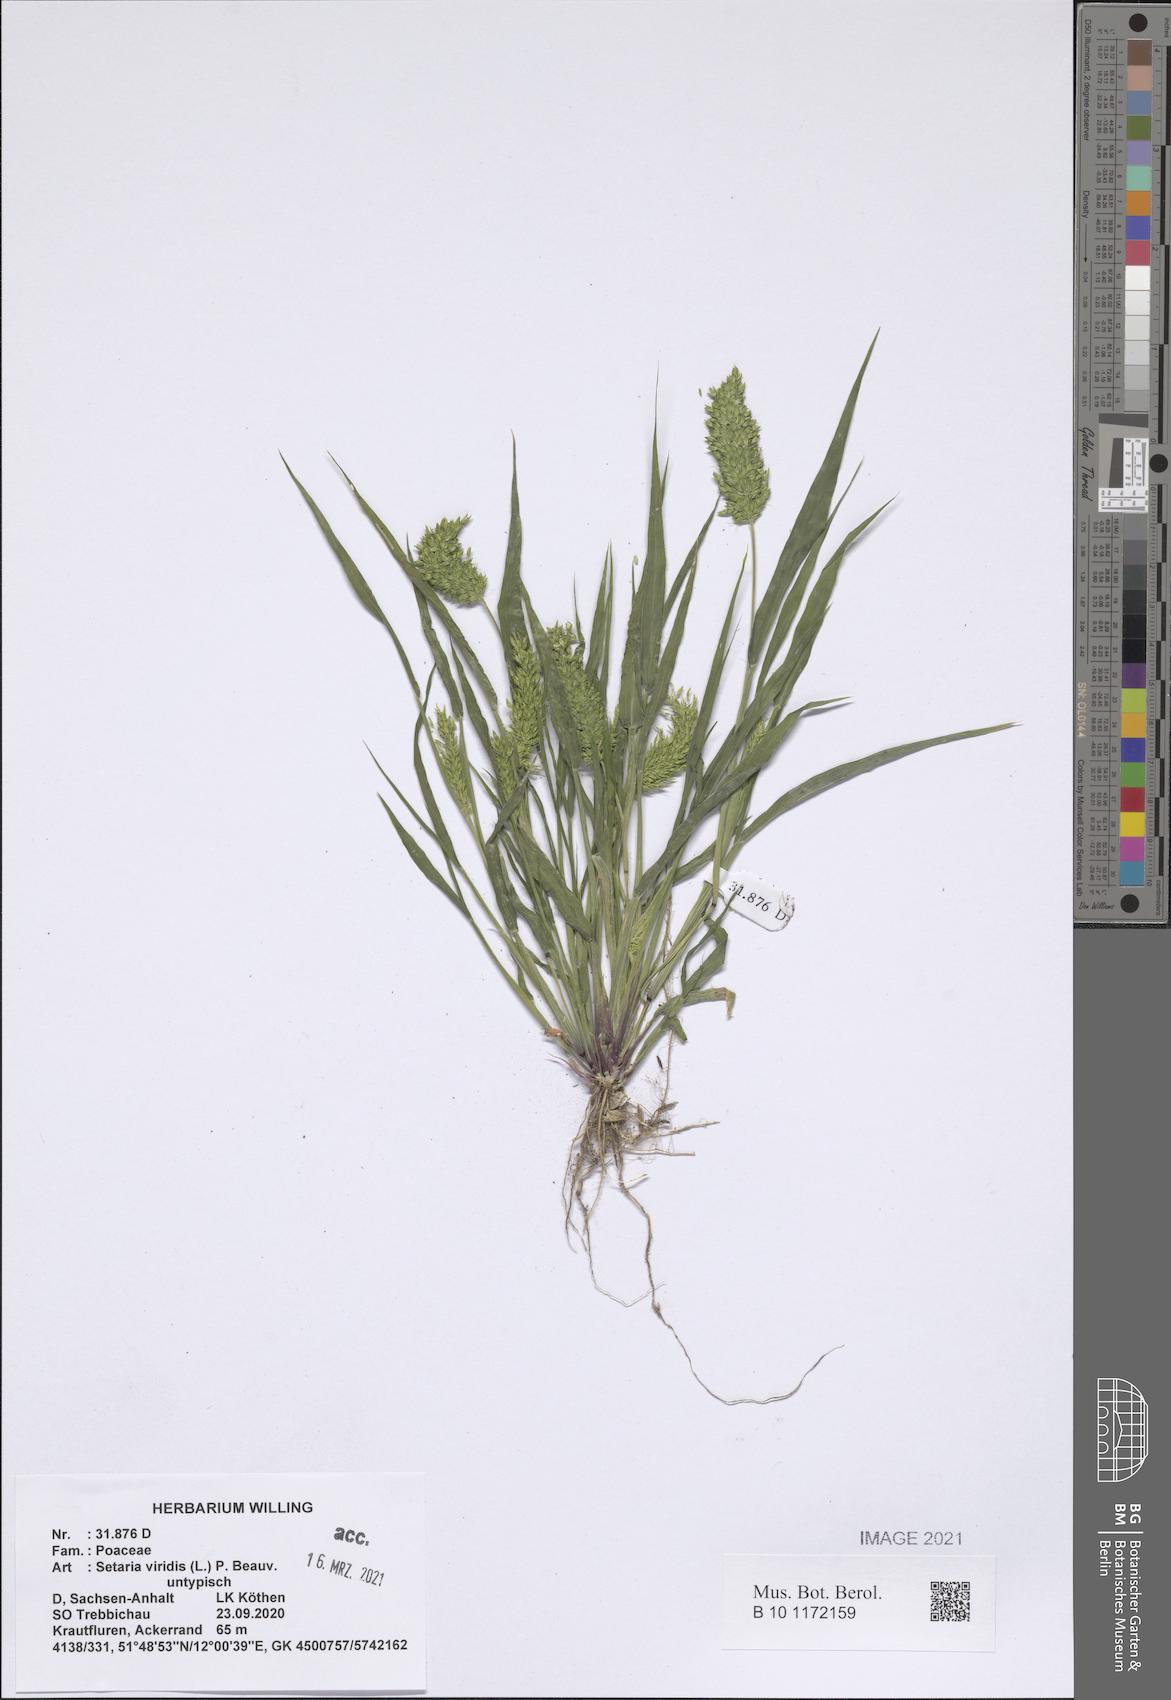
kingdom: Plantae
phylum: Tracheophyta
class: Liliopsida
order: Poales
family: Poaceae
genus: Setaria
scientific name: Setaria viridis
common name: Green bristlegrass
